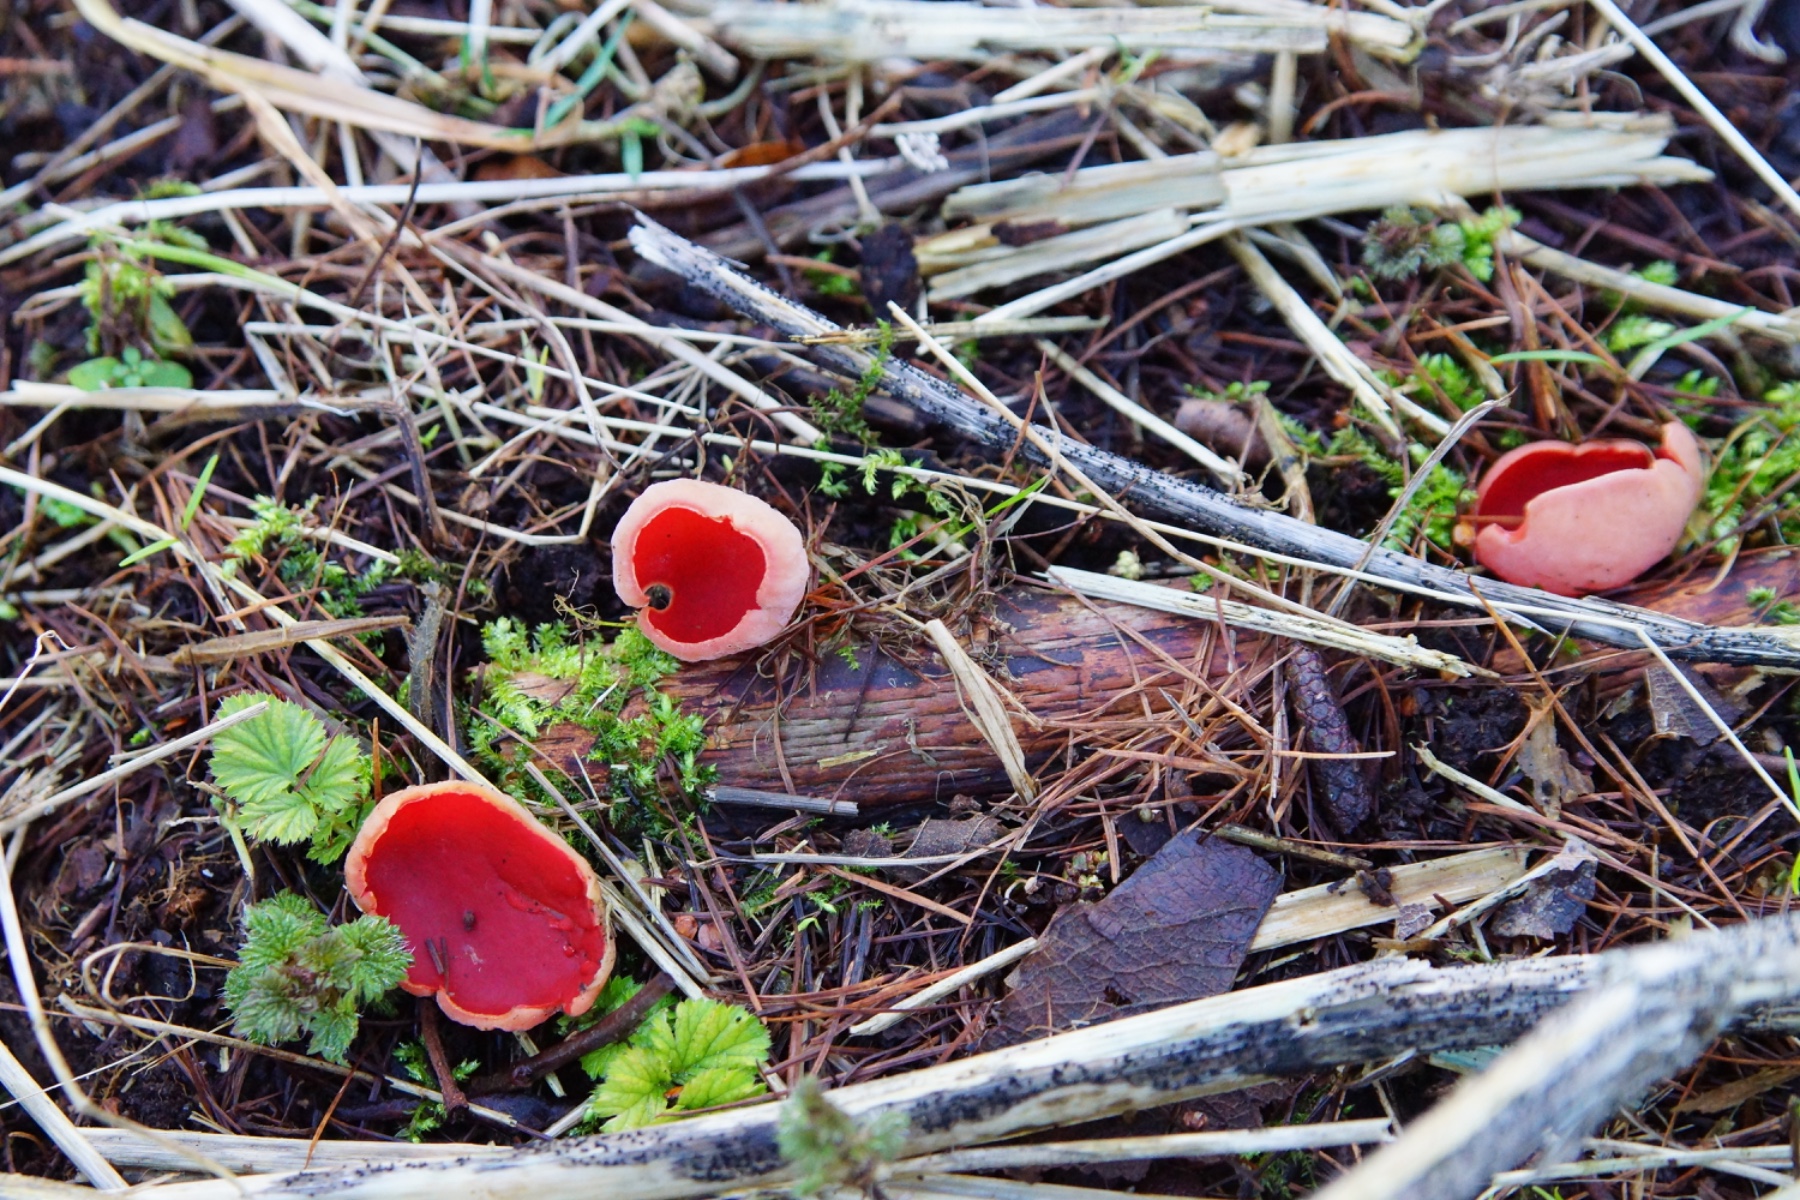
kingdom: Fungi
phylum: Ascomycota
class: Pezizomycetes
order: Pezizales
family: Sarcoscyphaceae
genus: Sarcoscypha
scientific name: Sarcoscypha austriaca
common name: krølhåret pragtbæger
